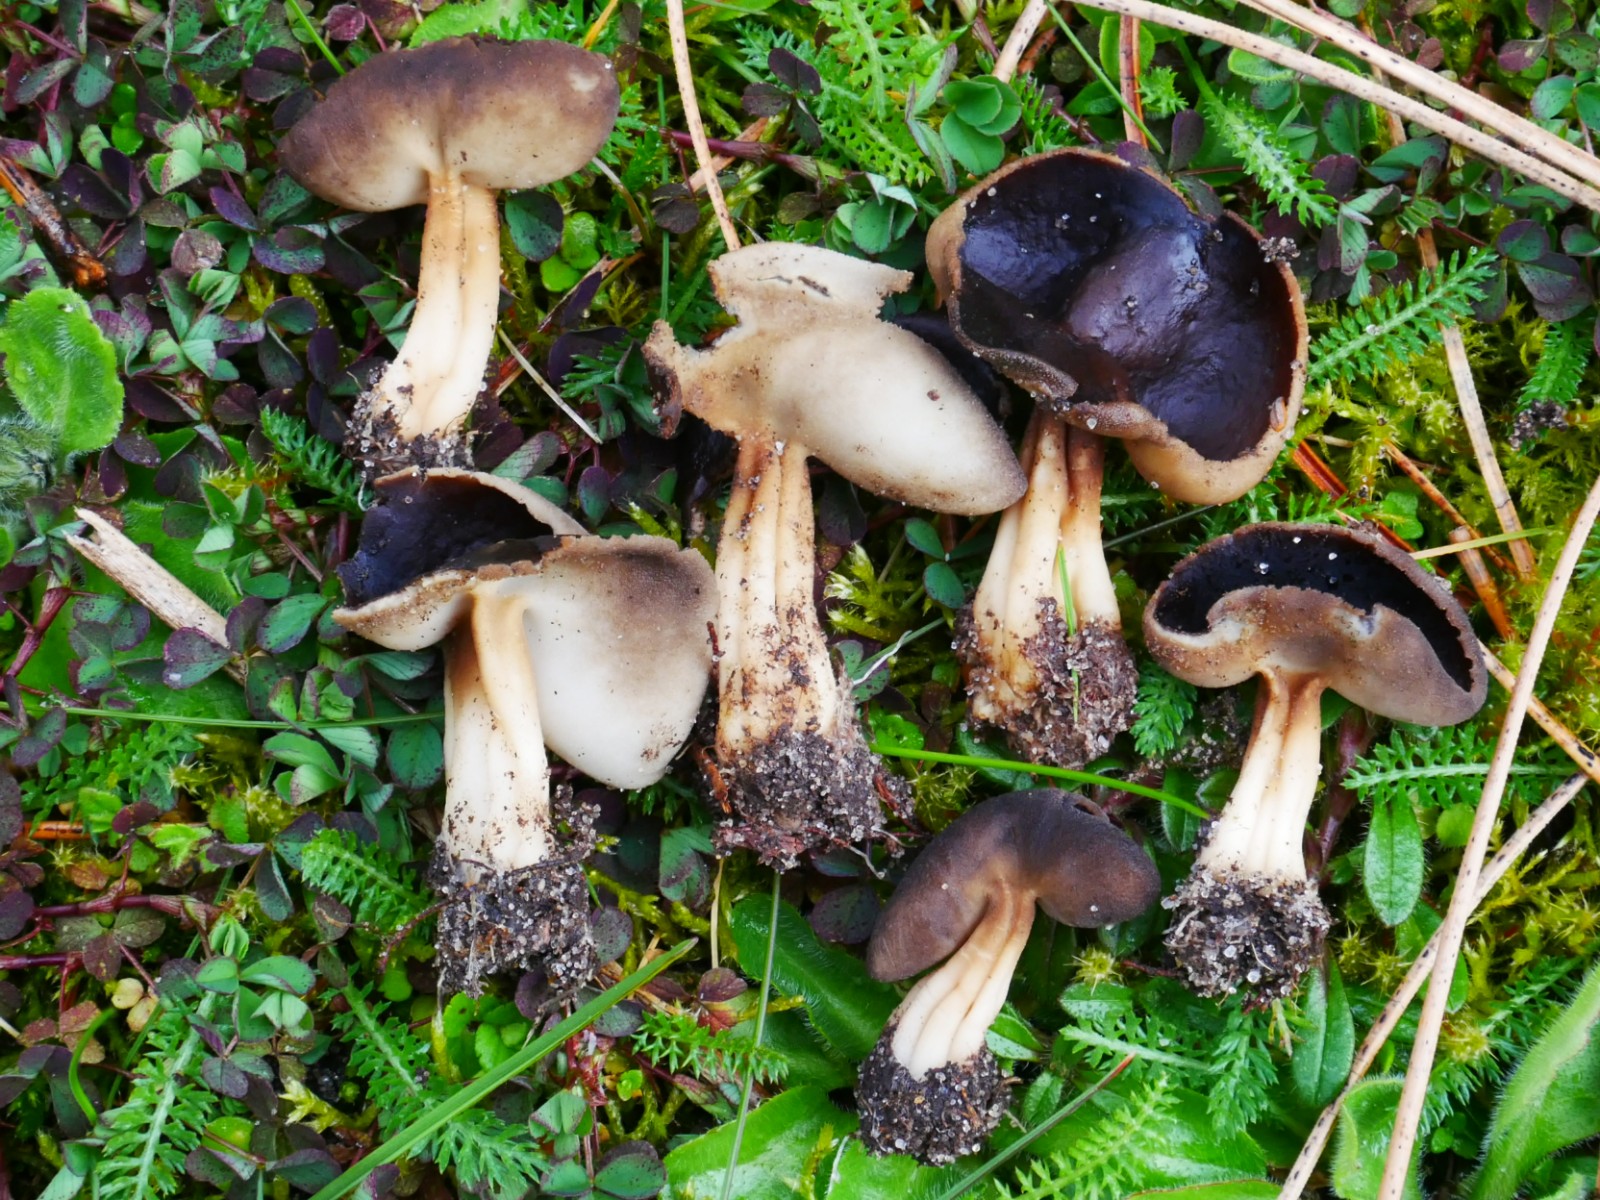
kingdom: Fungi
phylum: Ascomycota
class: Pezizomycetes
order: Pezizales
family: Helvellaceae
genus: Helvella
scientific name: Helvella solitaria
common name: Quélets foldhat
